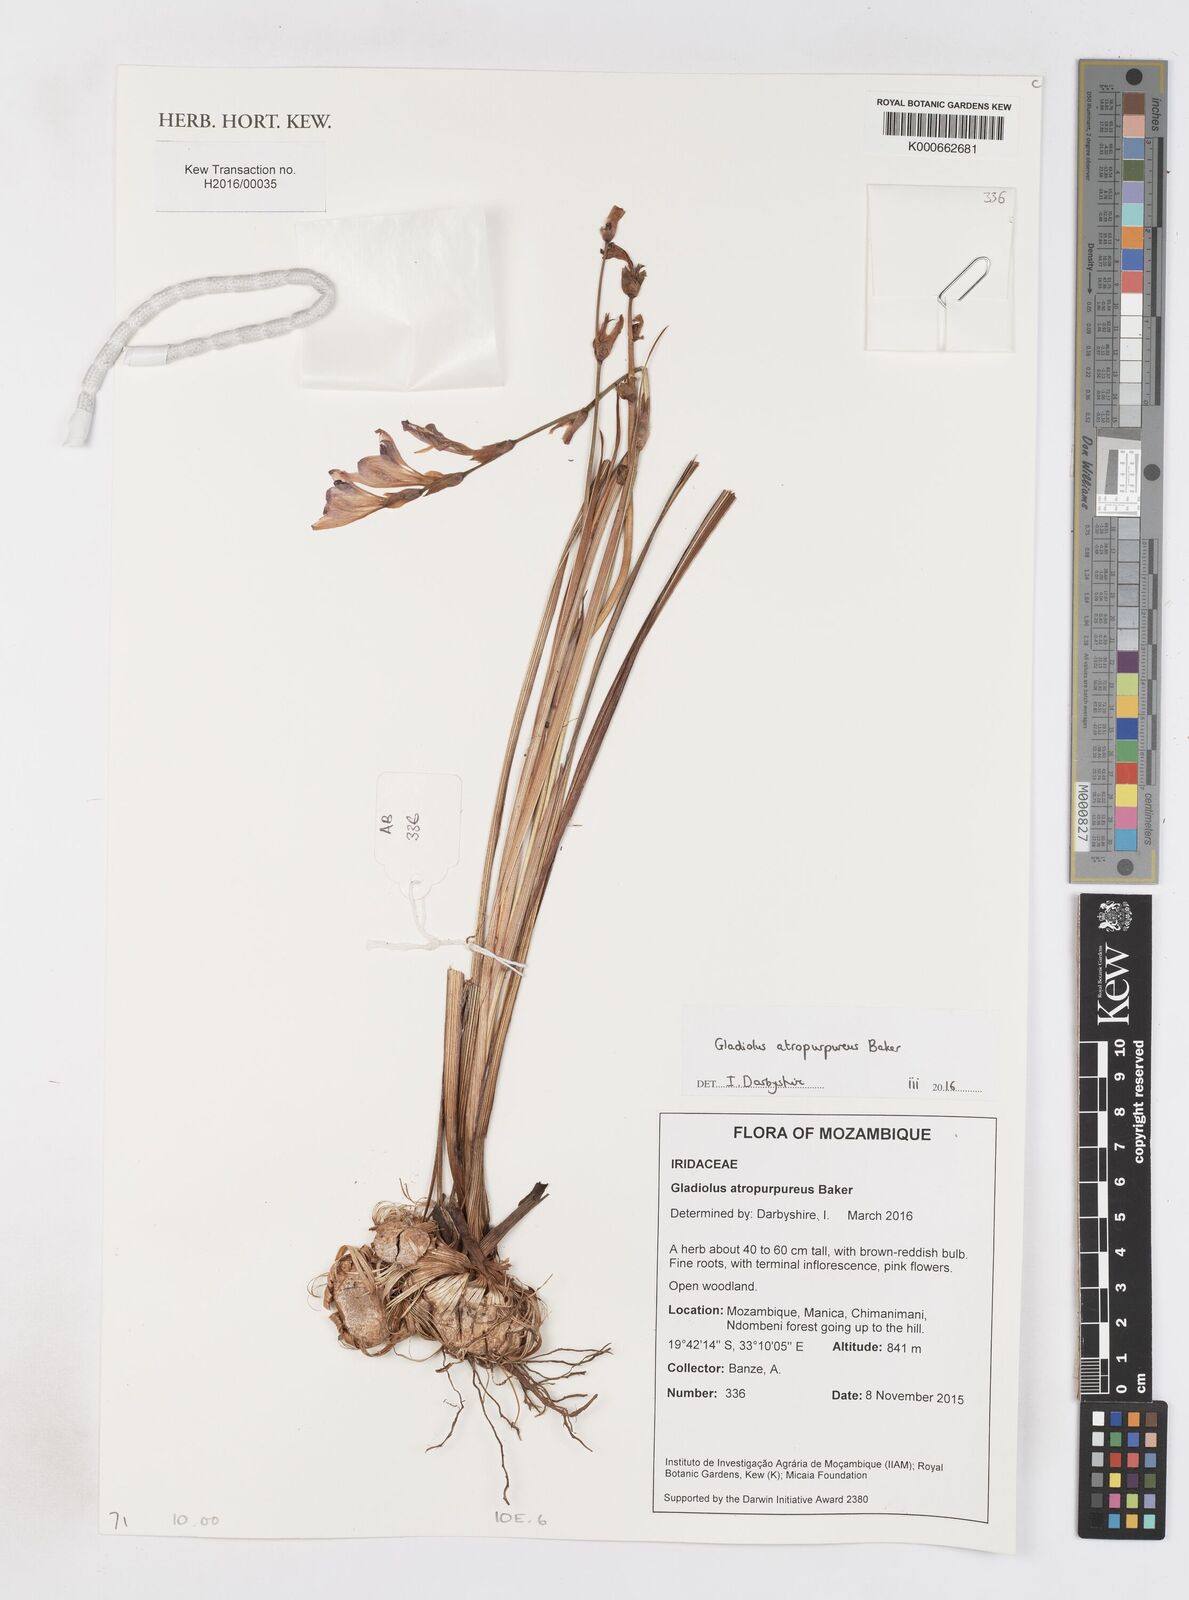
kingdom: Plantae
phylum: Tracheophyta
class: Liliopsida
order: Asparagales
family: Iridaceae
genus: Gladiolus
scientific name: Gladiolus atropurpureus
